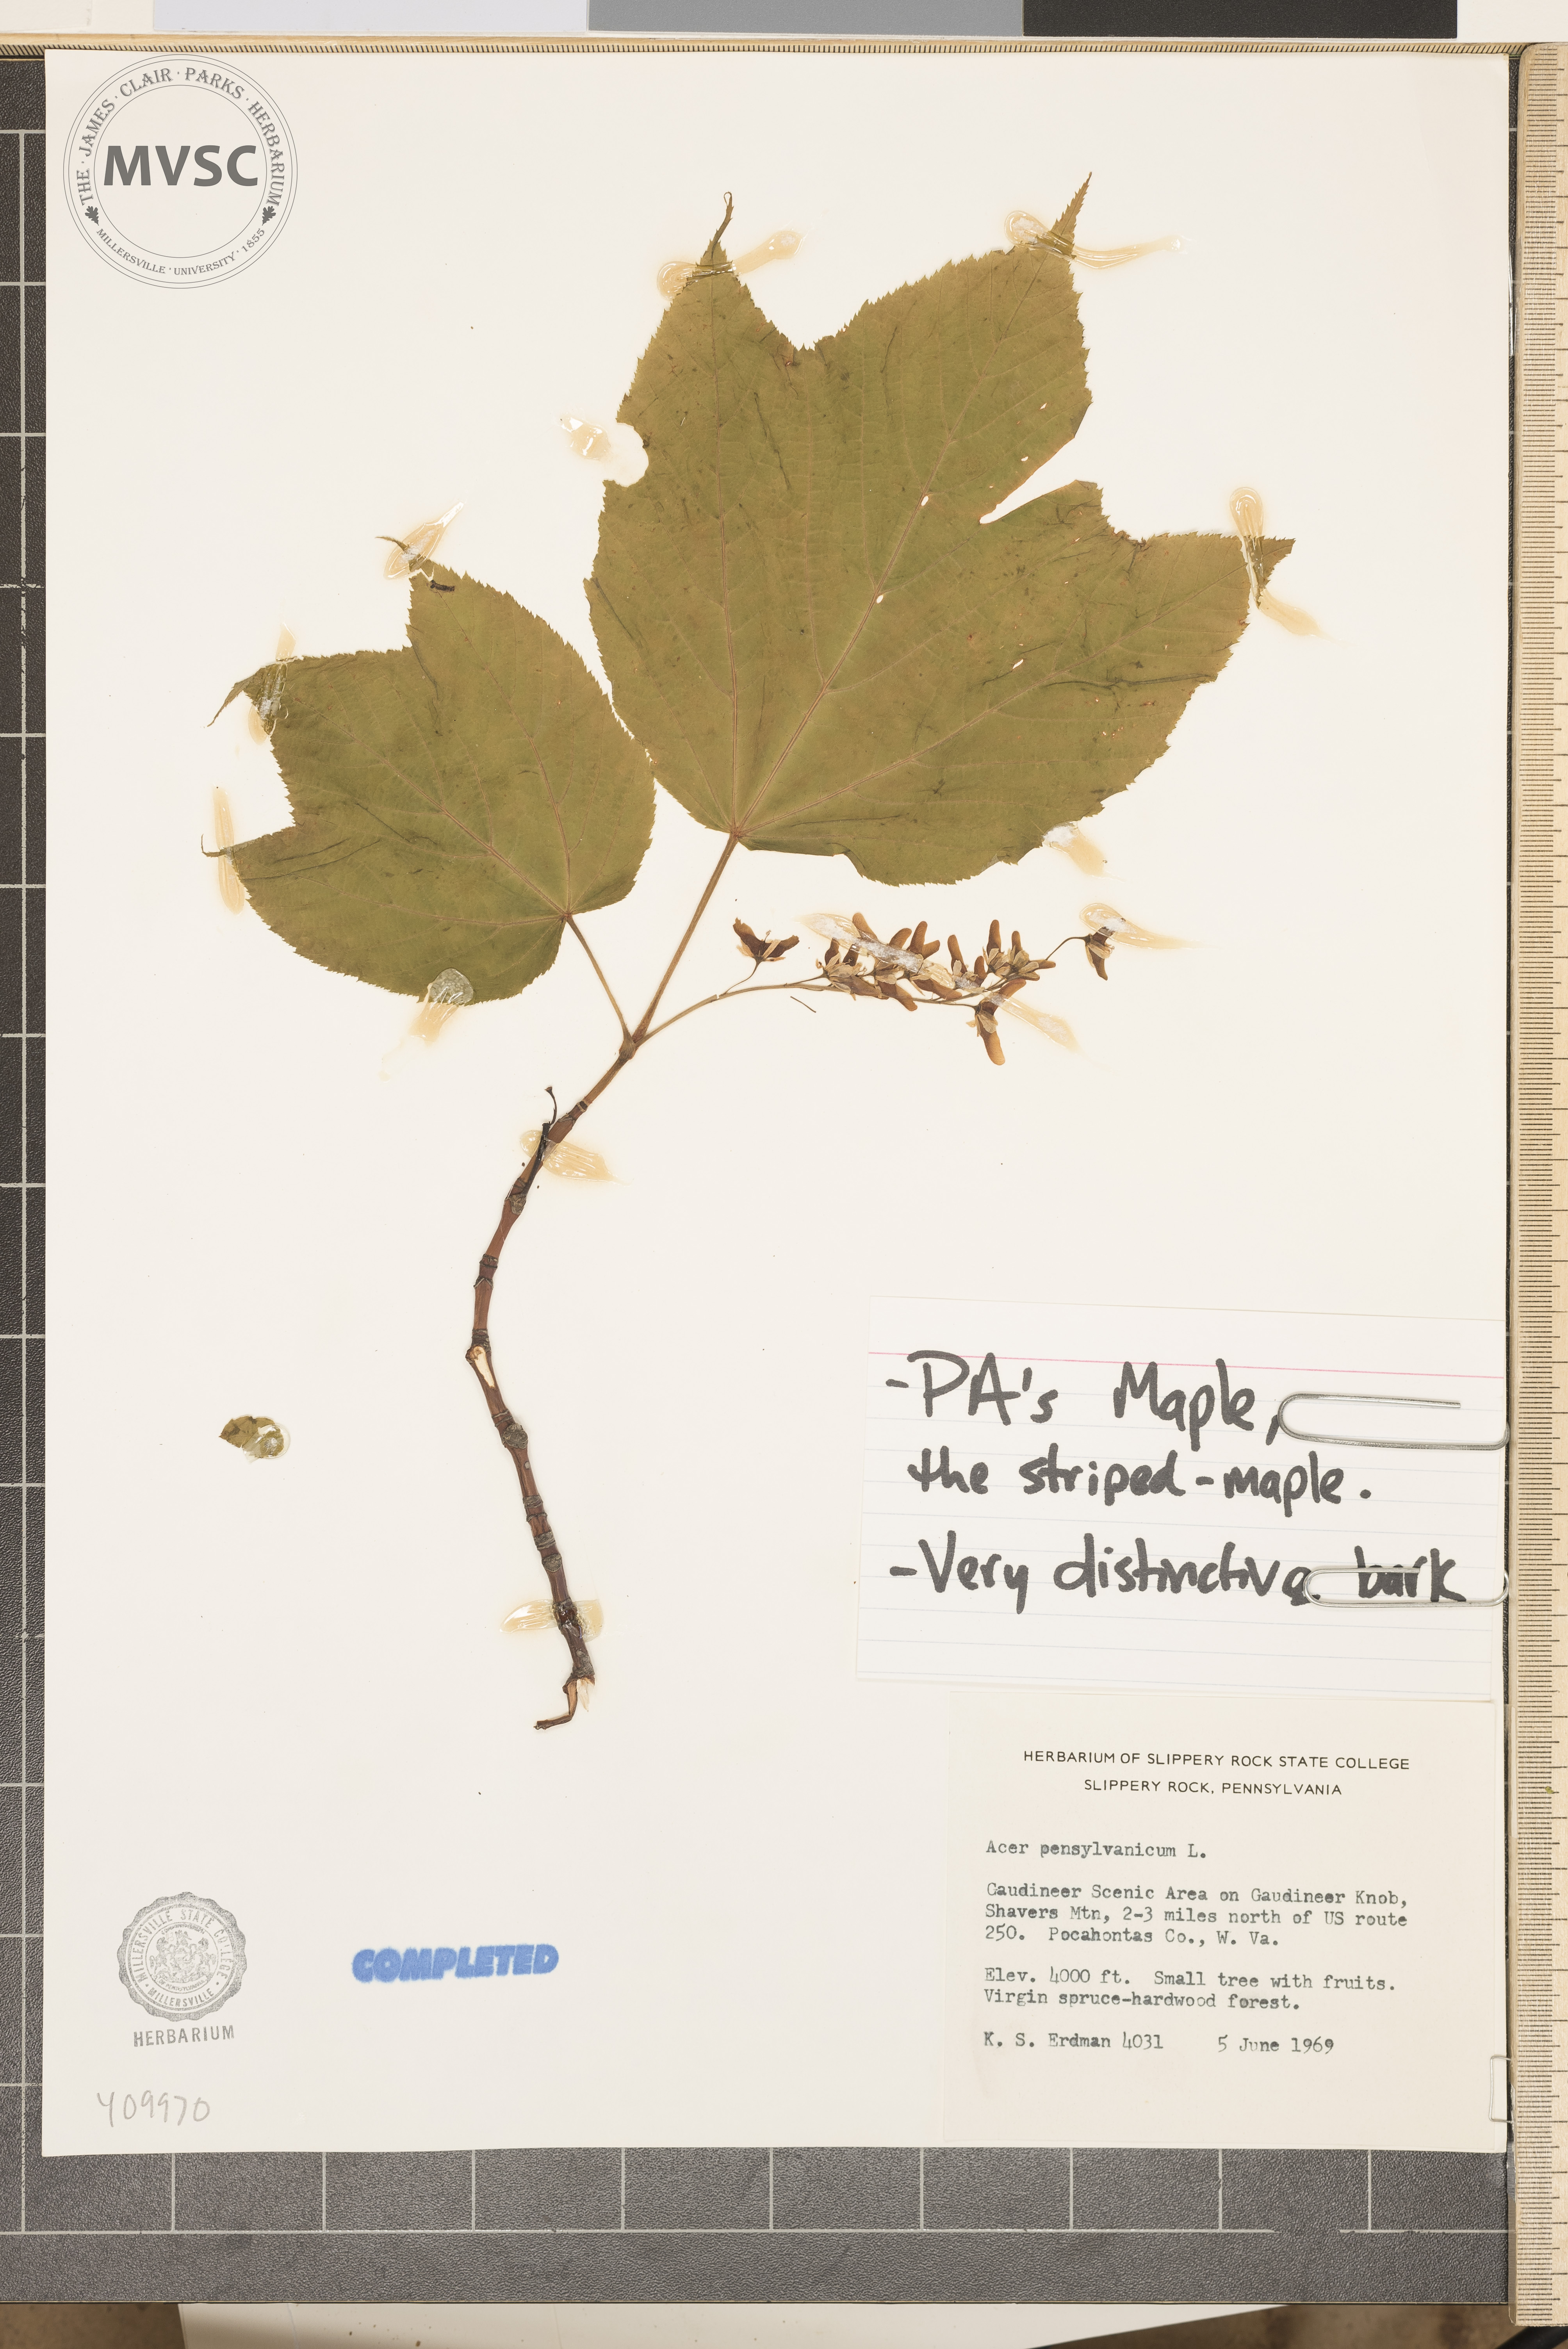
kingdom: Plantae
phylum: Tracheophyta
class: Magnoliopsida
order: Sapindales
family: Sapindaceae
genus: Acer
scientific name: Acer pensylvanicum
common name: Moosewood
